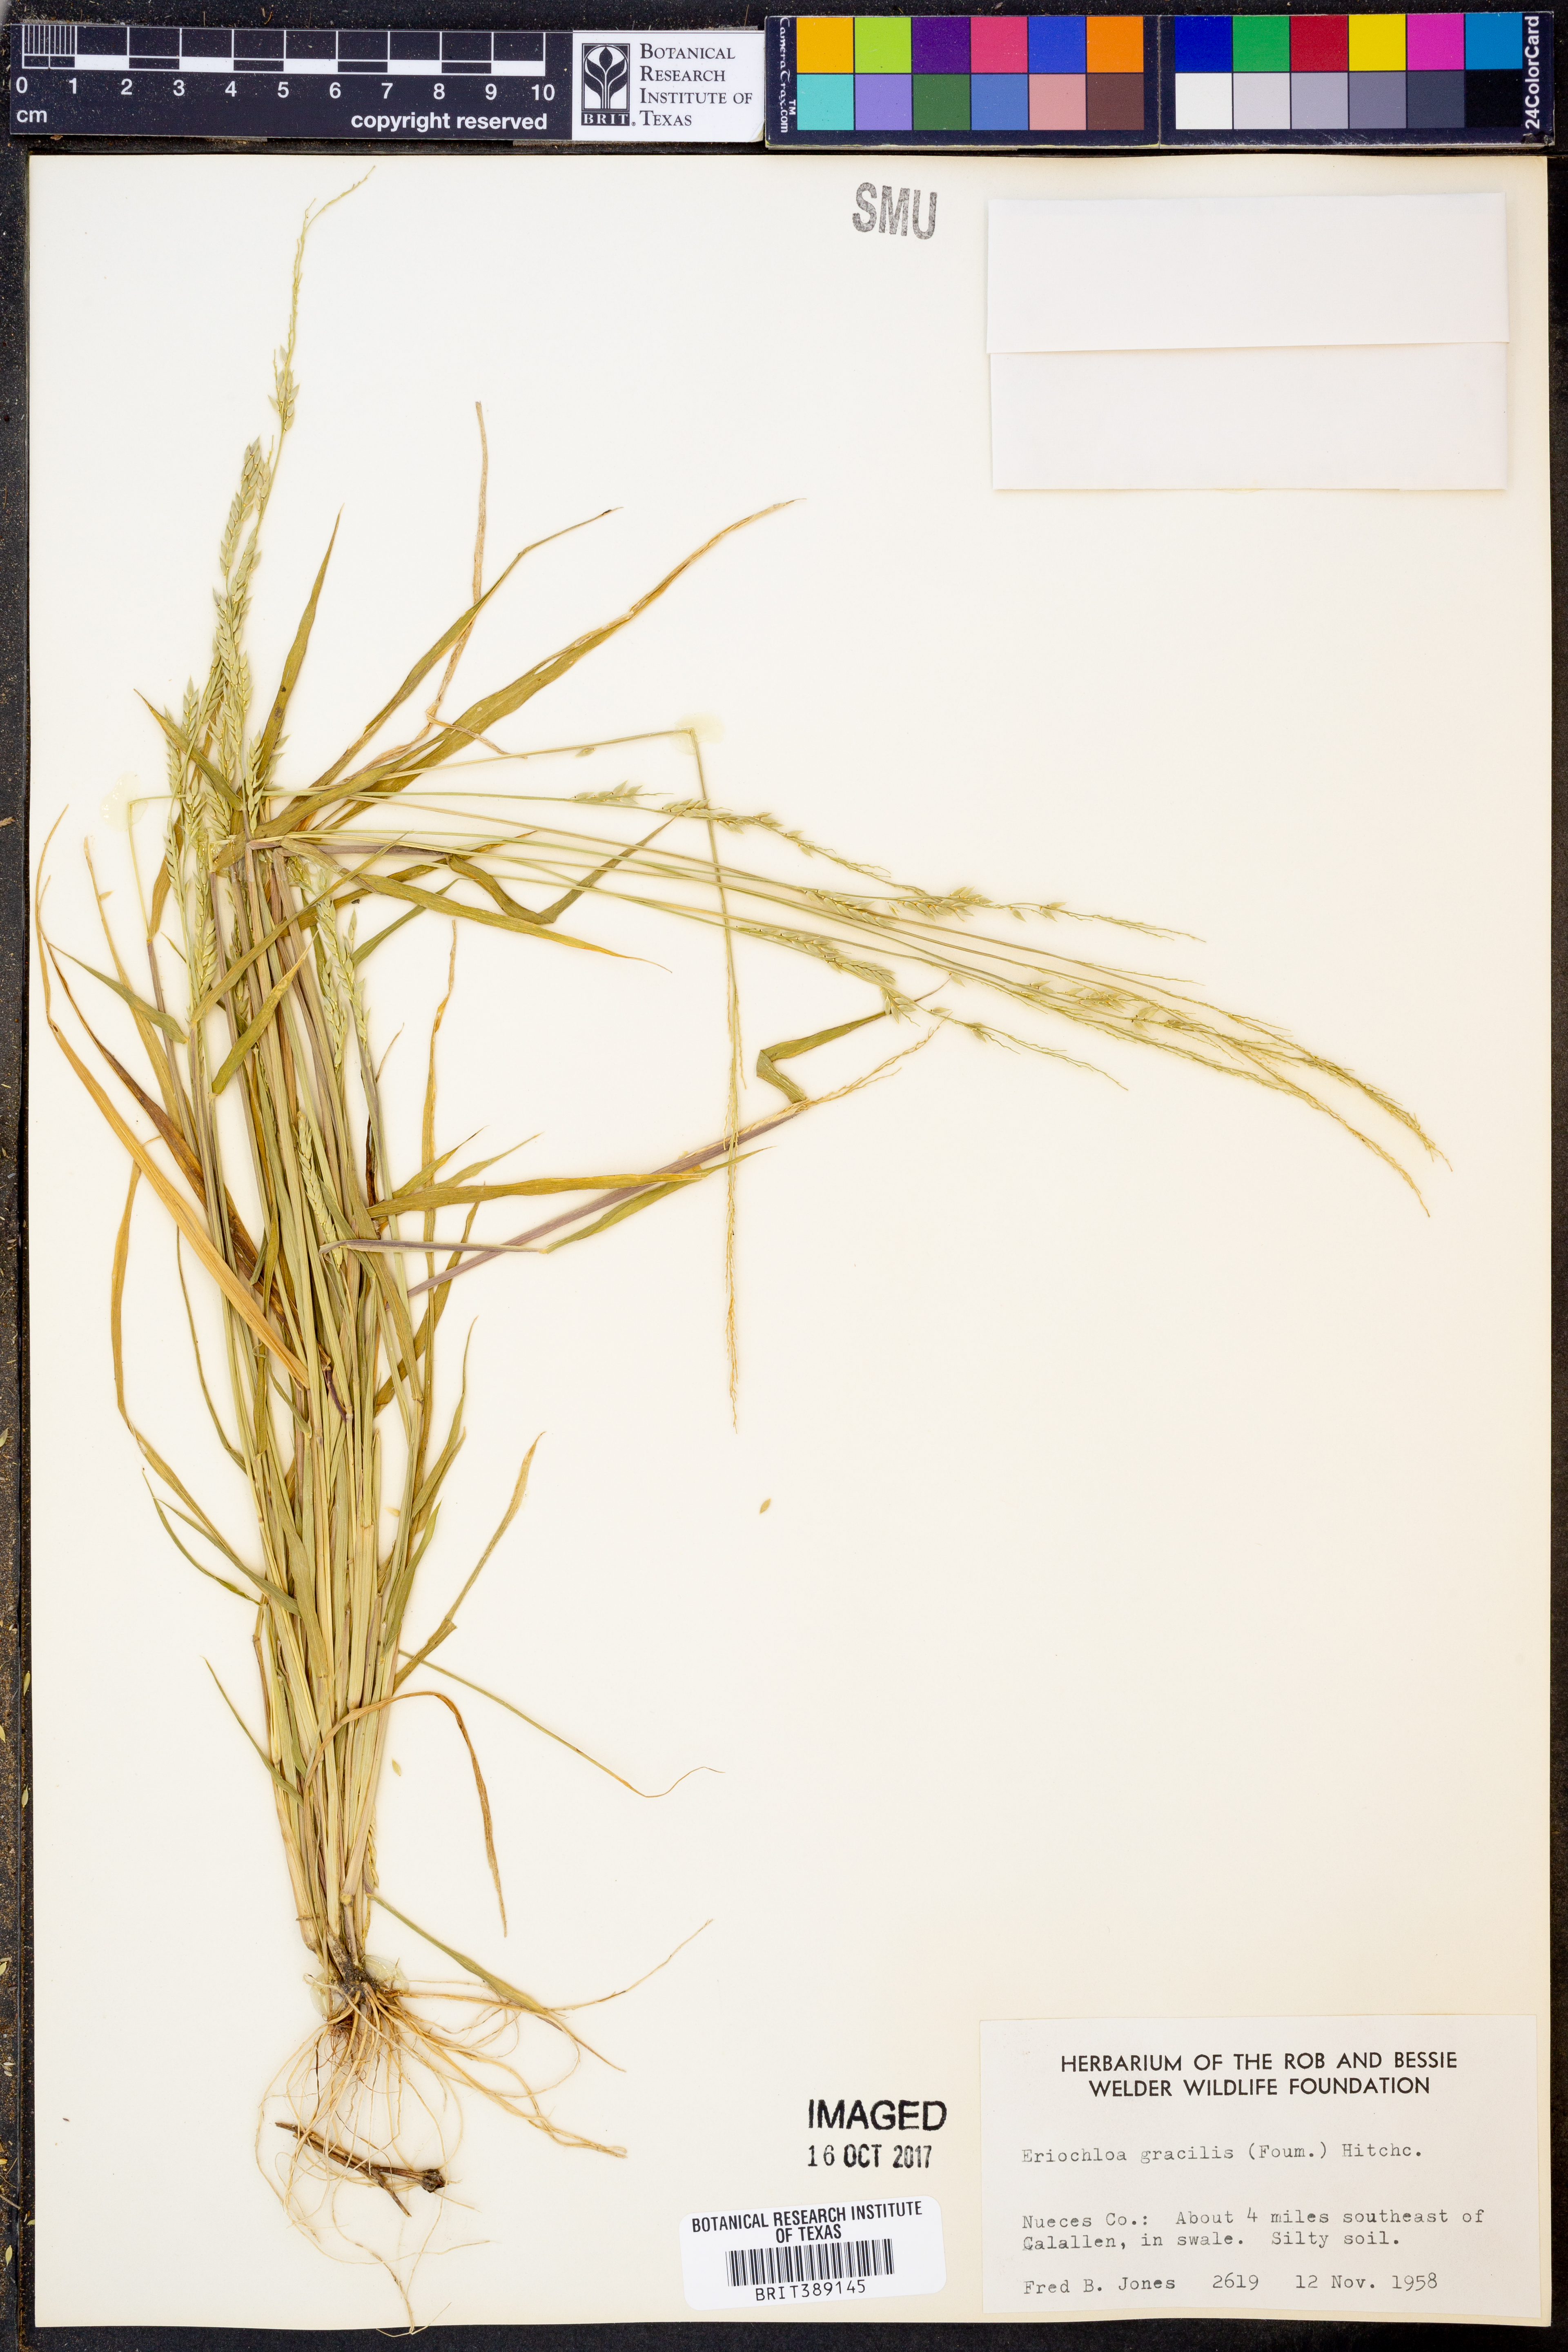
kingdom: Plantae
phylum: Tracheophyta
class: Liliopsida
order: Poales
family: Poaceae
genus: Eriochloa
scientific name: Eriochloa acuminata
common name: Southwestern cup grass
